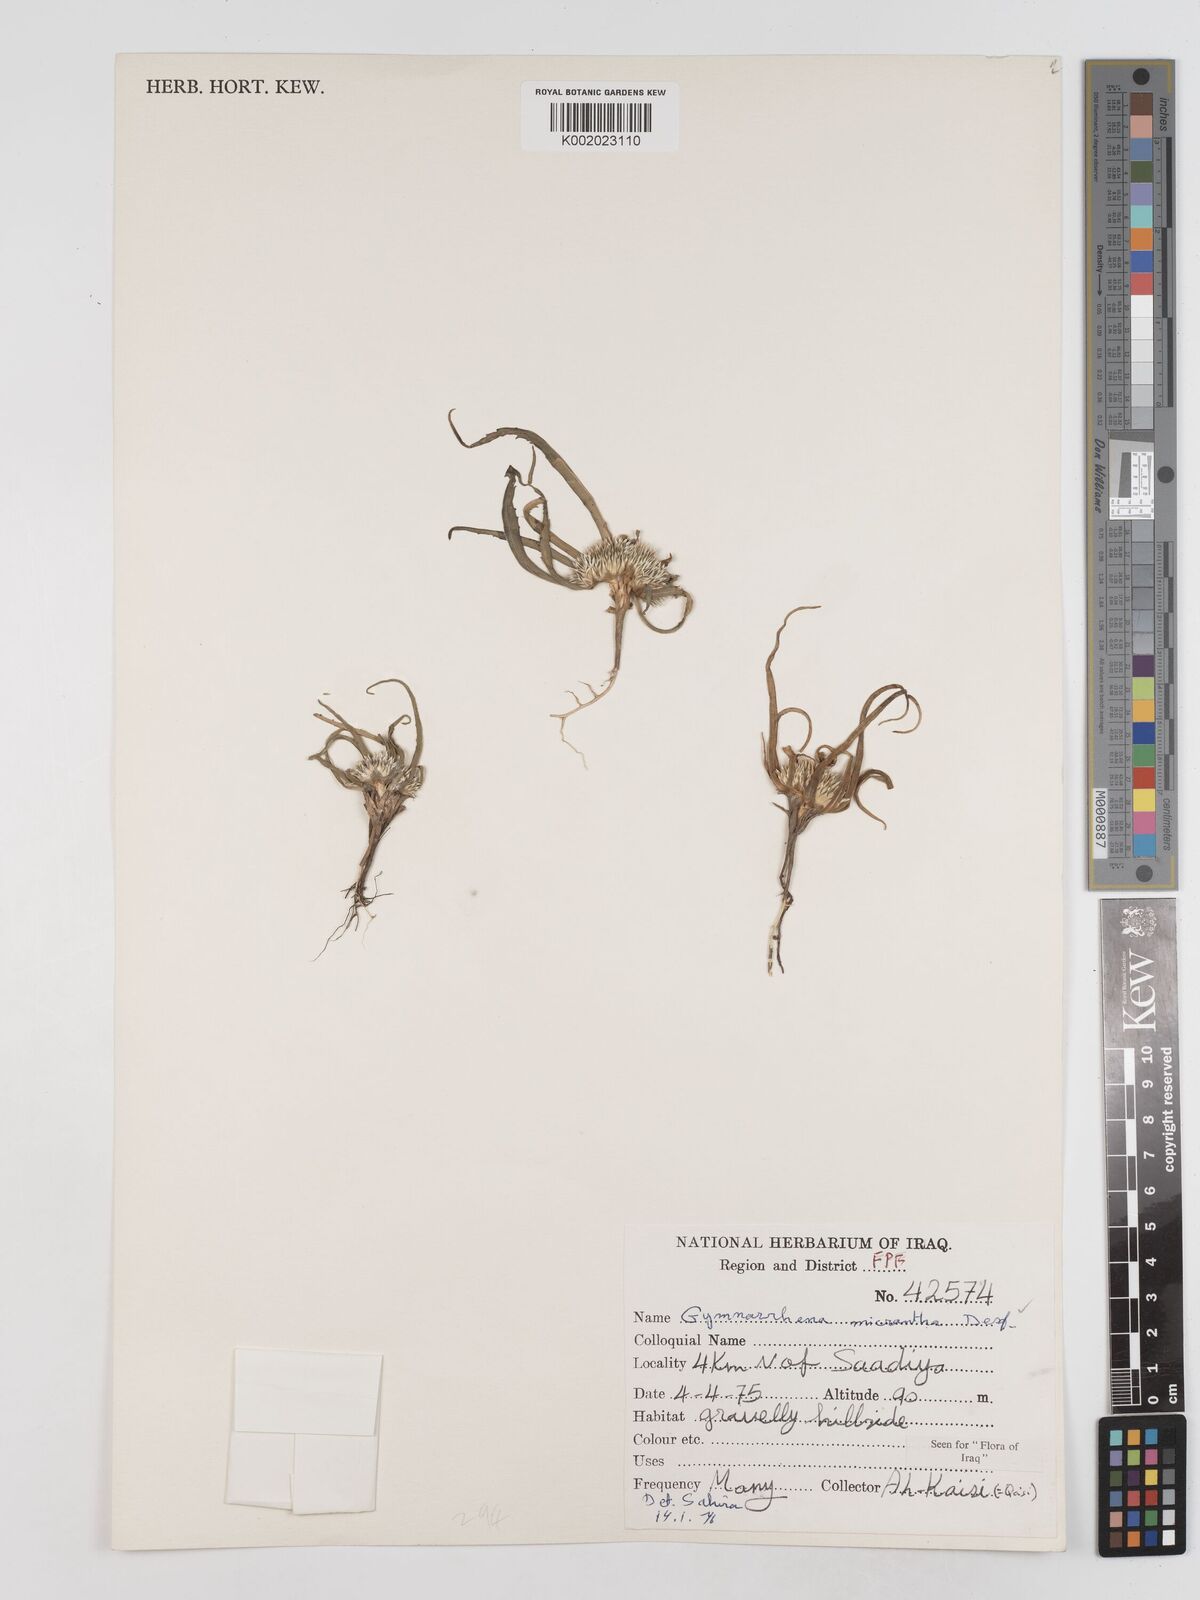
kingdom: Plantae
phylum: Tracheophyta
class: Magnoliopsida
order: Asterales
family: Asteraceae
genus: Gymnarrhena
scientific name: Gymnarrhena micrantha
